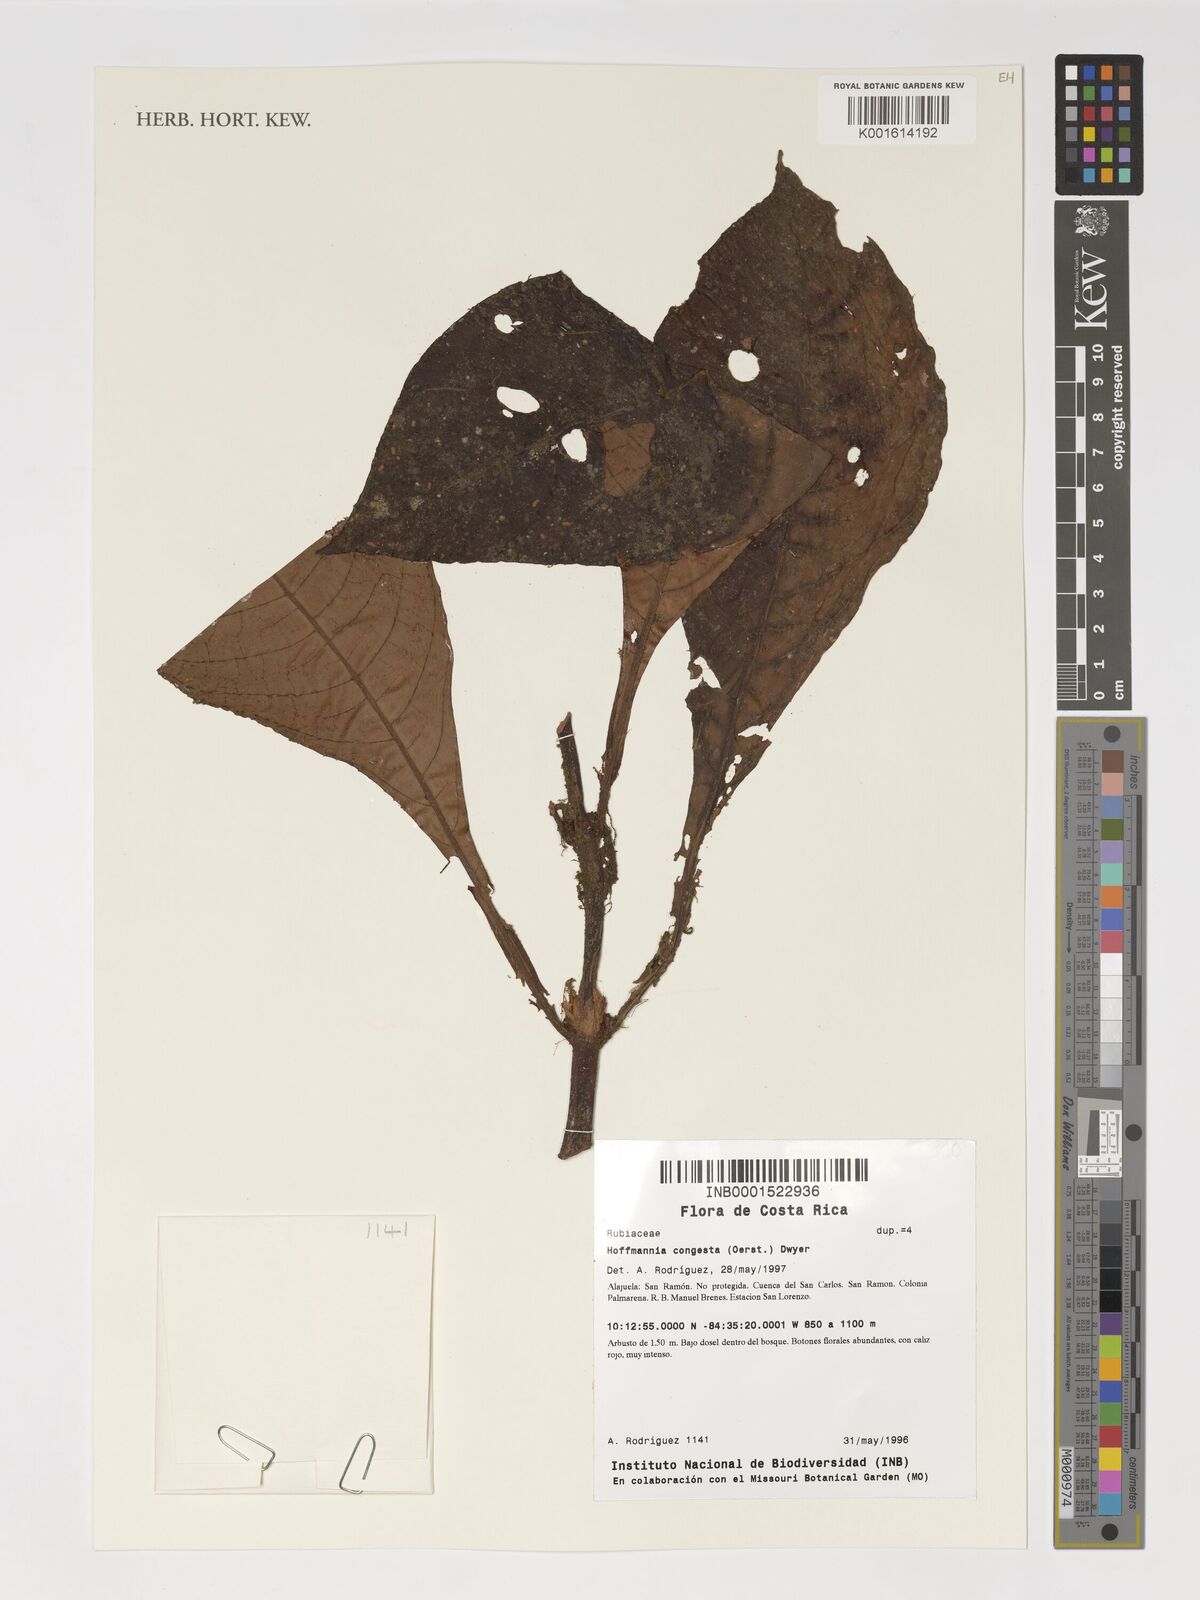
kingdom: Plantae
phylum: Tracheophyta
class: Magnoliopsida
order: Gentianales
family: Rubiaceae
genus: Hoffmannia
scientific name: Hoffmannia congesta
